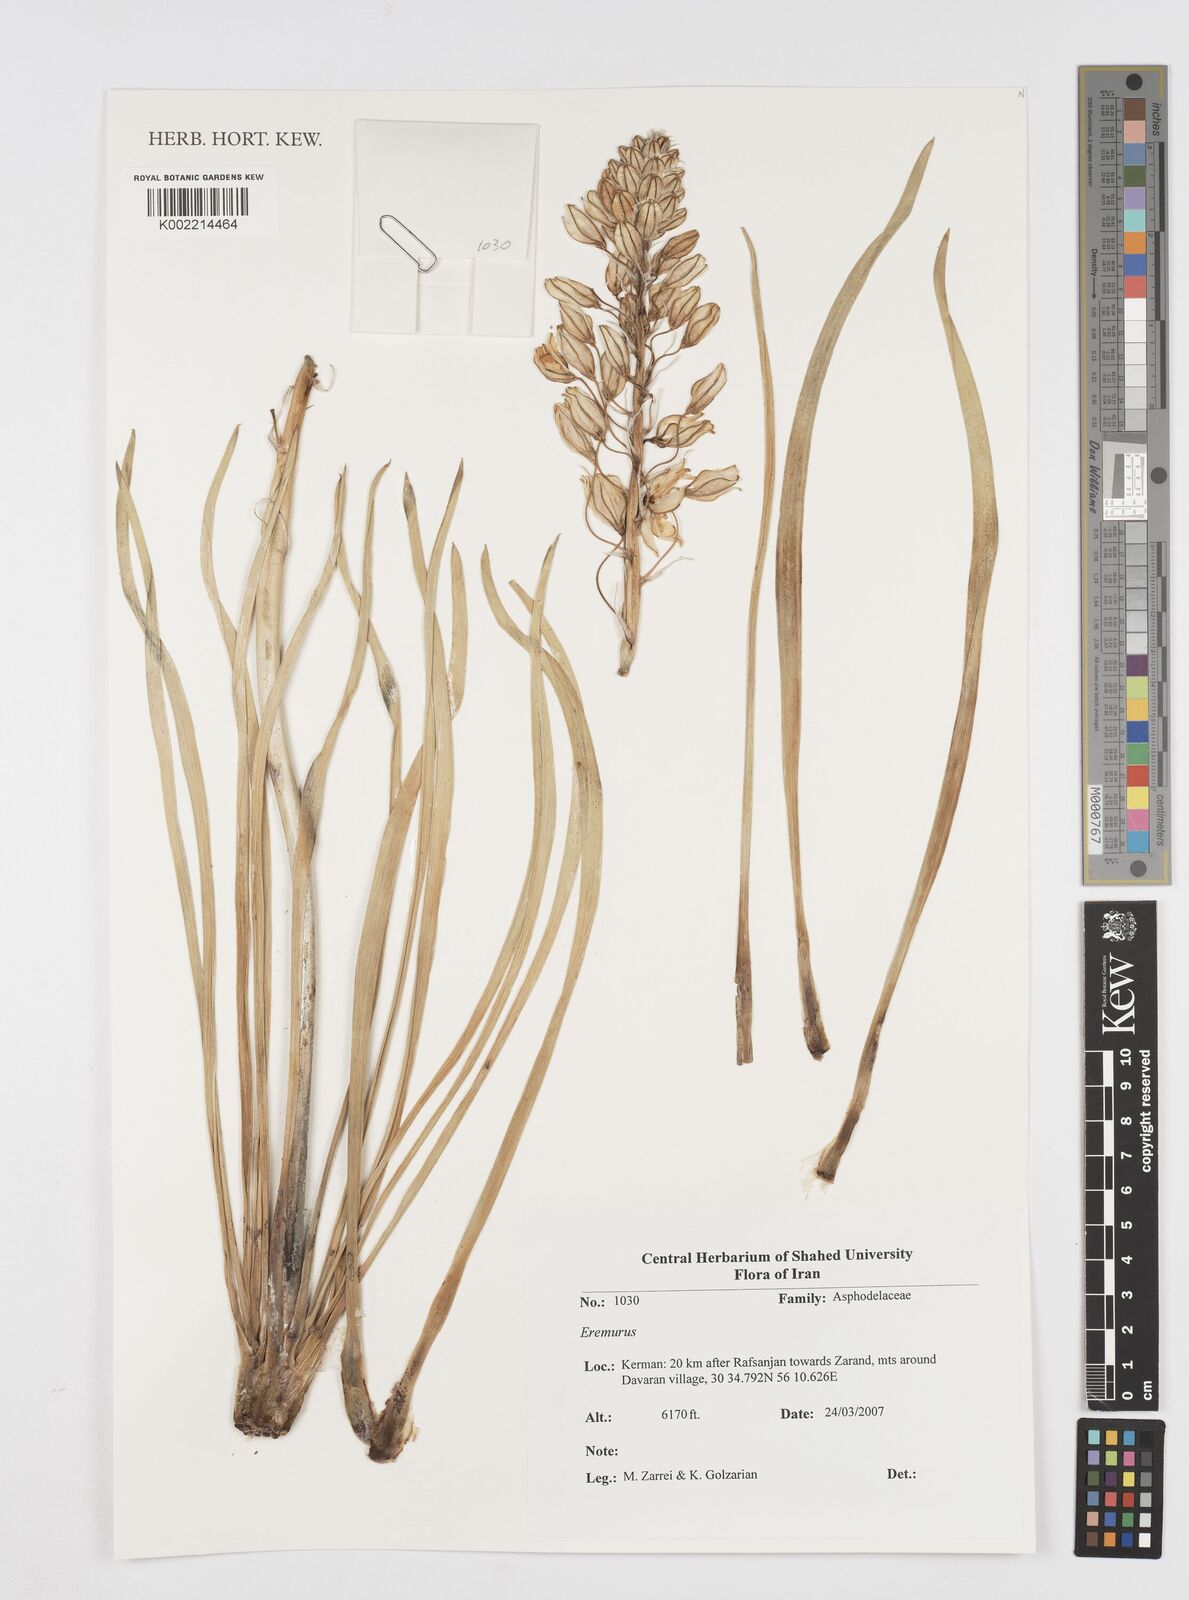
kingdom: Plantae
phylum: Tracheophyta
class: Liliopsida
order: Asparagales
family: Asphodelaceae
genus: Eremurus
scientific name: Eremurus
